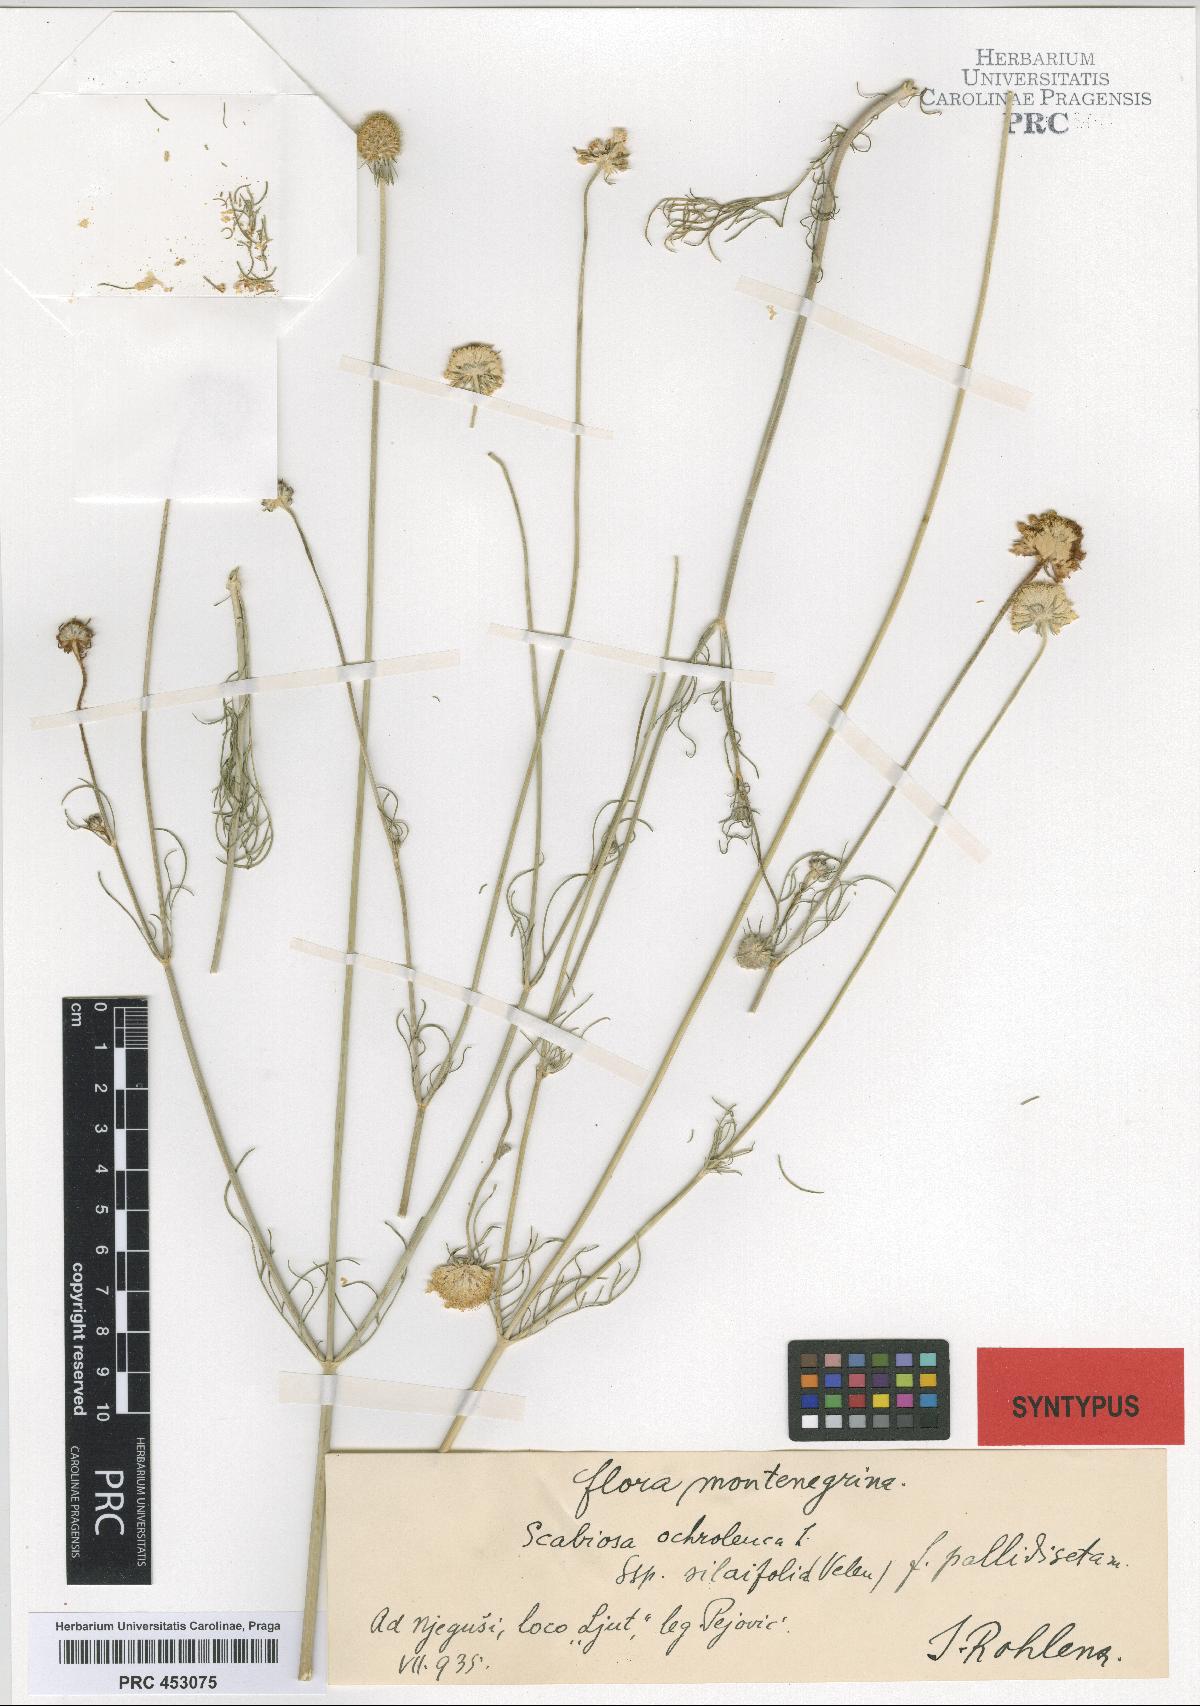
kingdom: Plantae
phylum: Tracheophyta
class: Magnoliopsida
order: Dipsacales
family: Caprifoliaceae
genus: Scabiosa
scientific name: Scabiosa ochroleuca
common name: Cream pincushions
